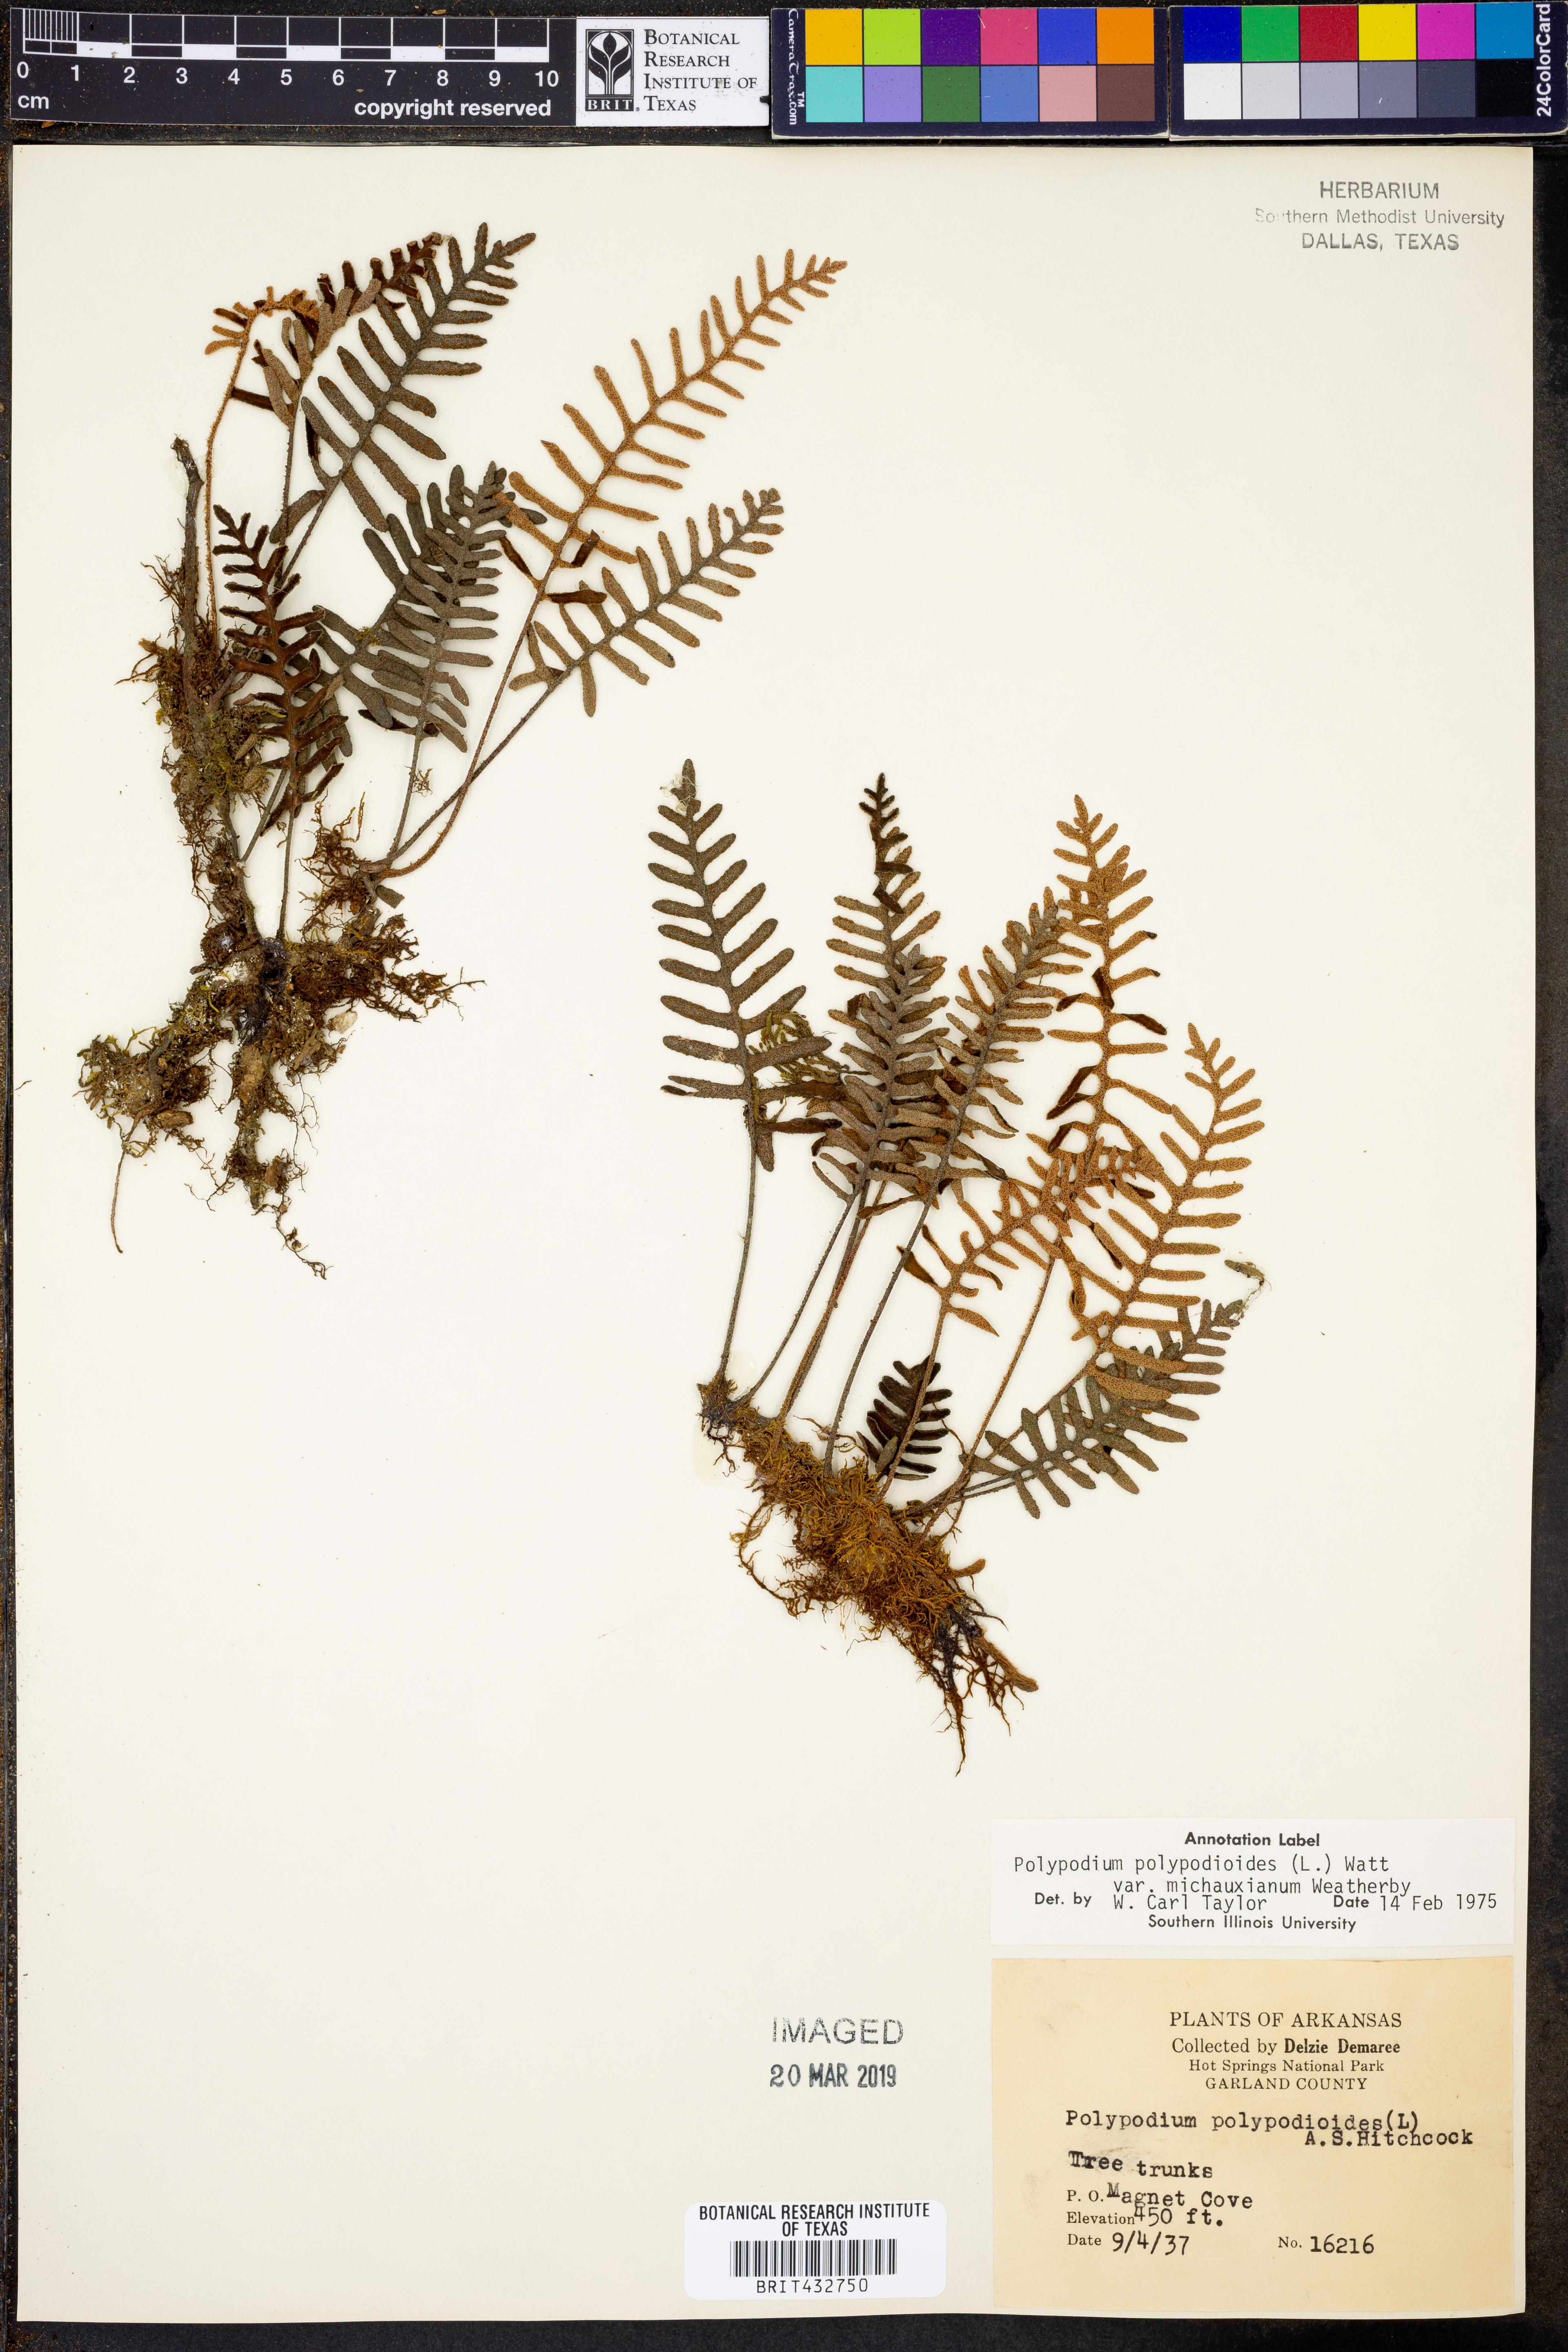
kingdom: Plantae
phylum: Tracheophyta
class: Polypodiopsida
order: Polypodiales
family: Polypodiaceae
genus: Pleopeltis
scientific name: Pleopeltis michauxiana
